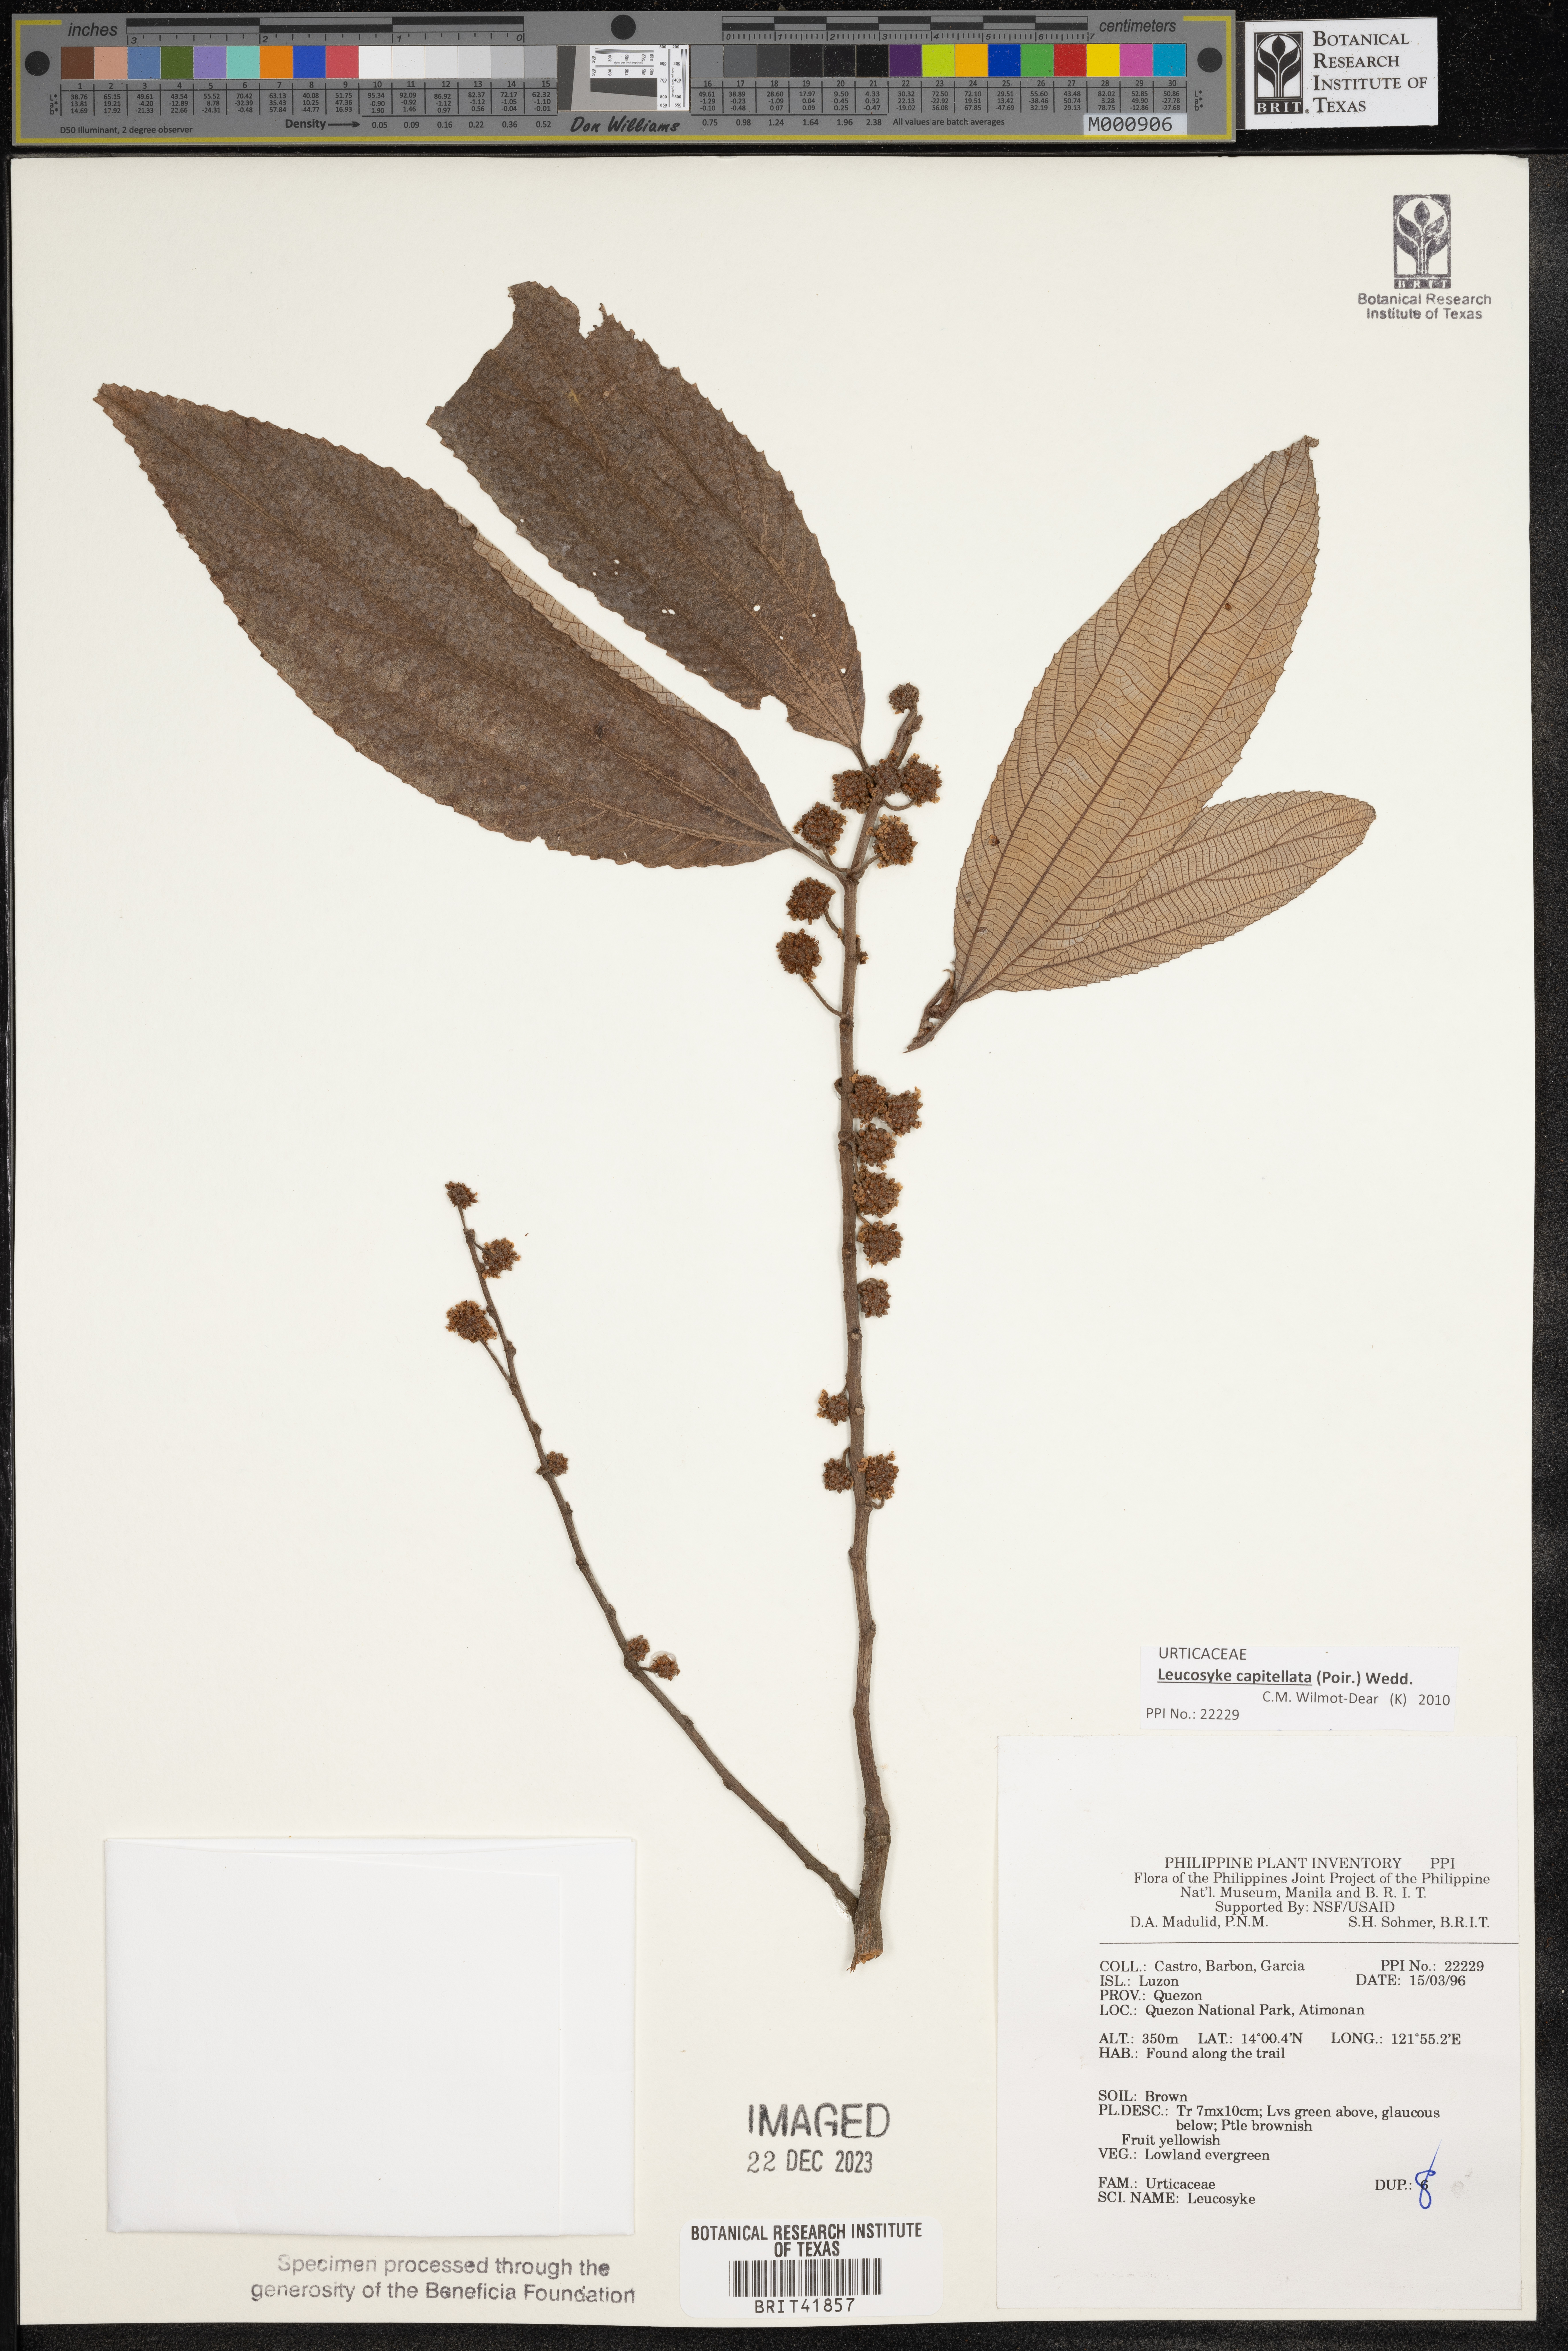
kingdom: Plantae
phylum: Tracheophyta
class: Magnoliopsida
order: Rosales
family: Urticaceae
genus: Leucosyke
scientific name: Leucosyke
